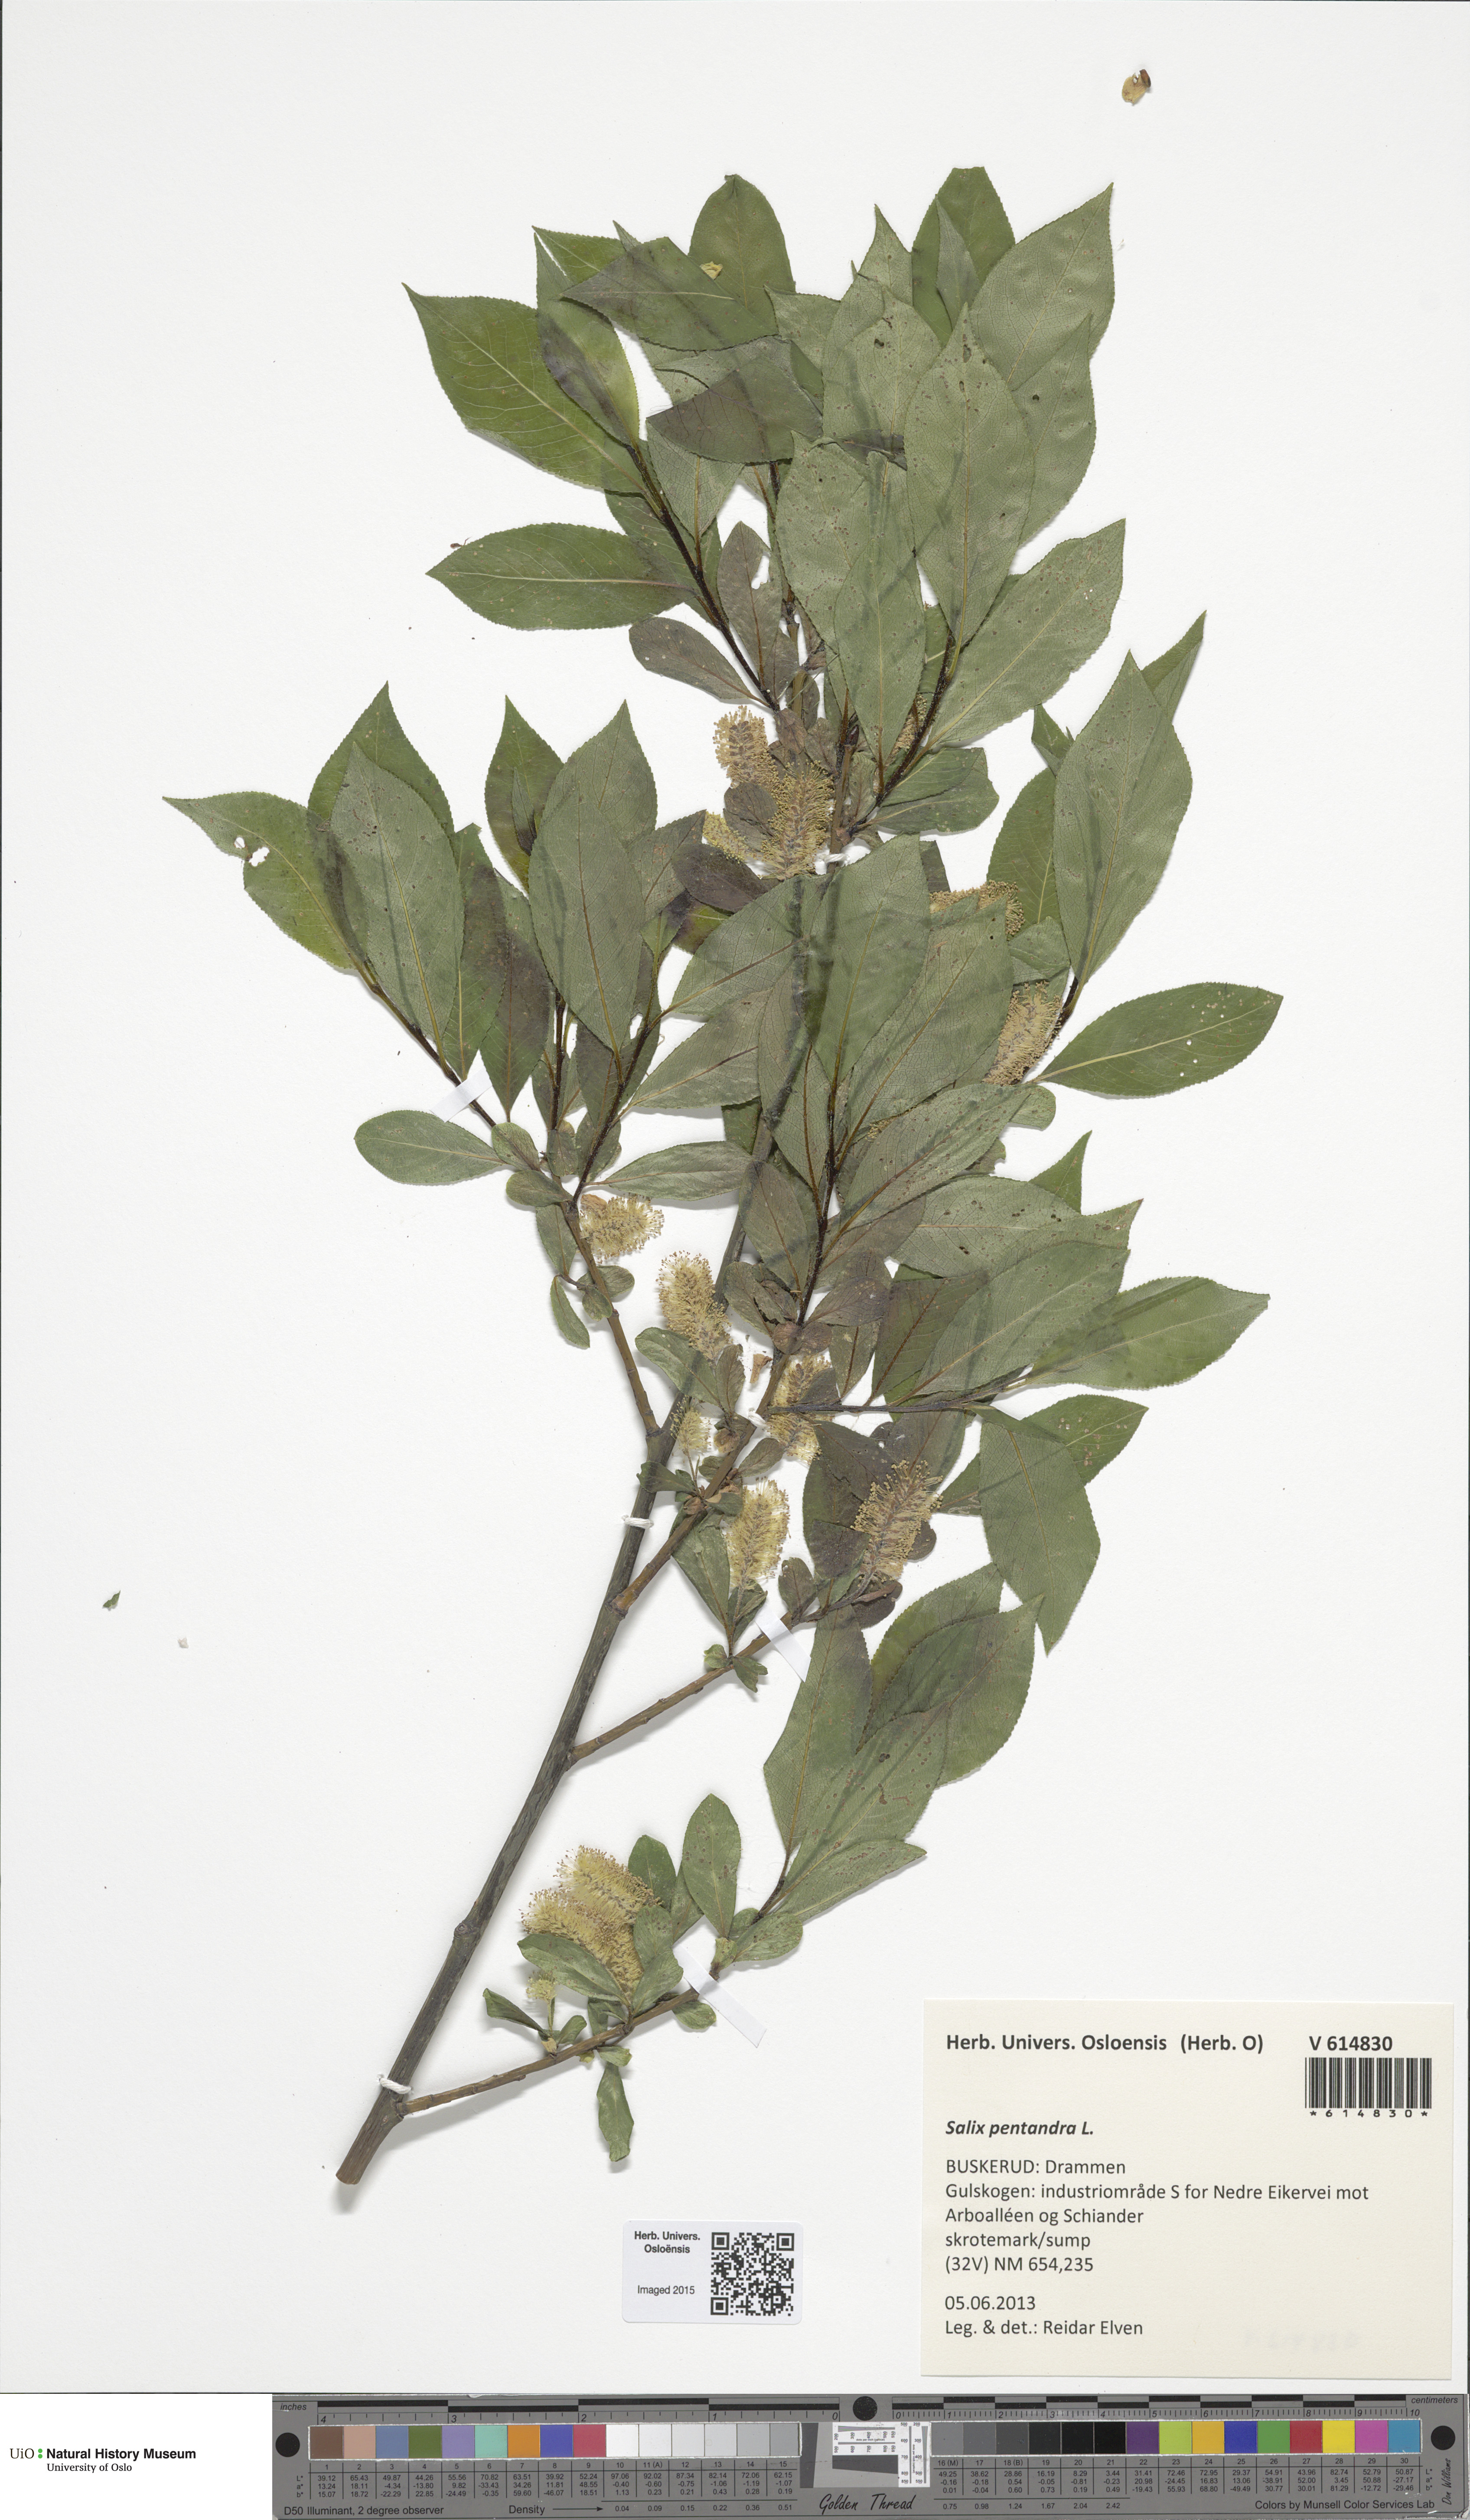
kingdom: Plantae
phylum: Tracheophyta
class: Magnoliopsida
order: Malpighiales
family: Salicaceae
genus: Salix
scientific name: Salix pentandra
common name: Bay willow
